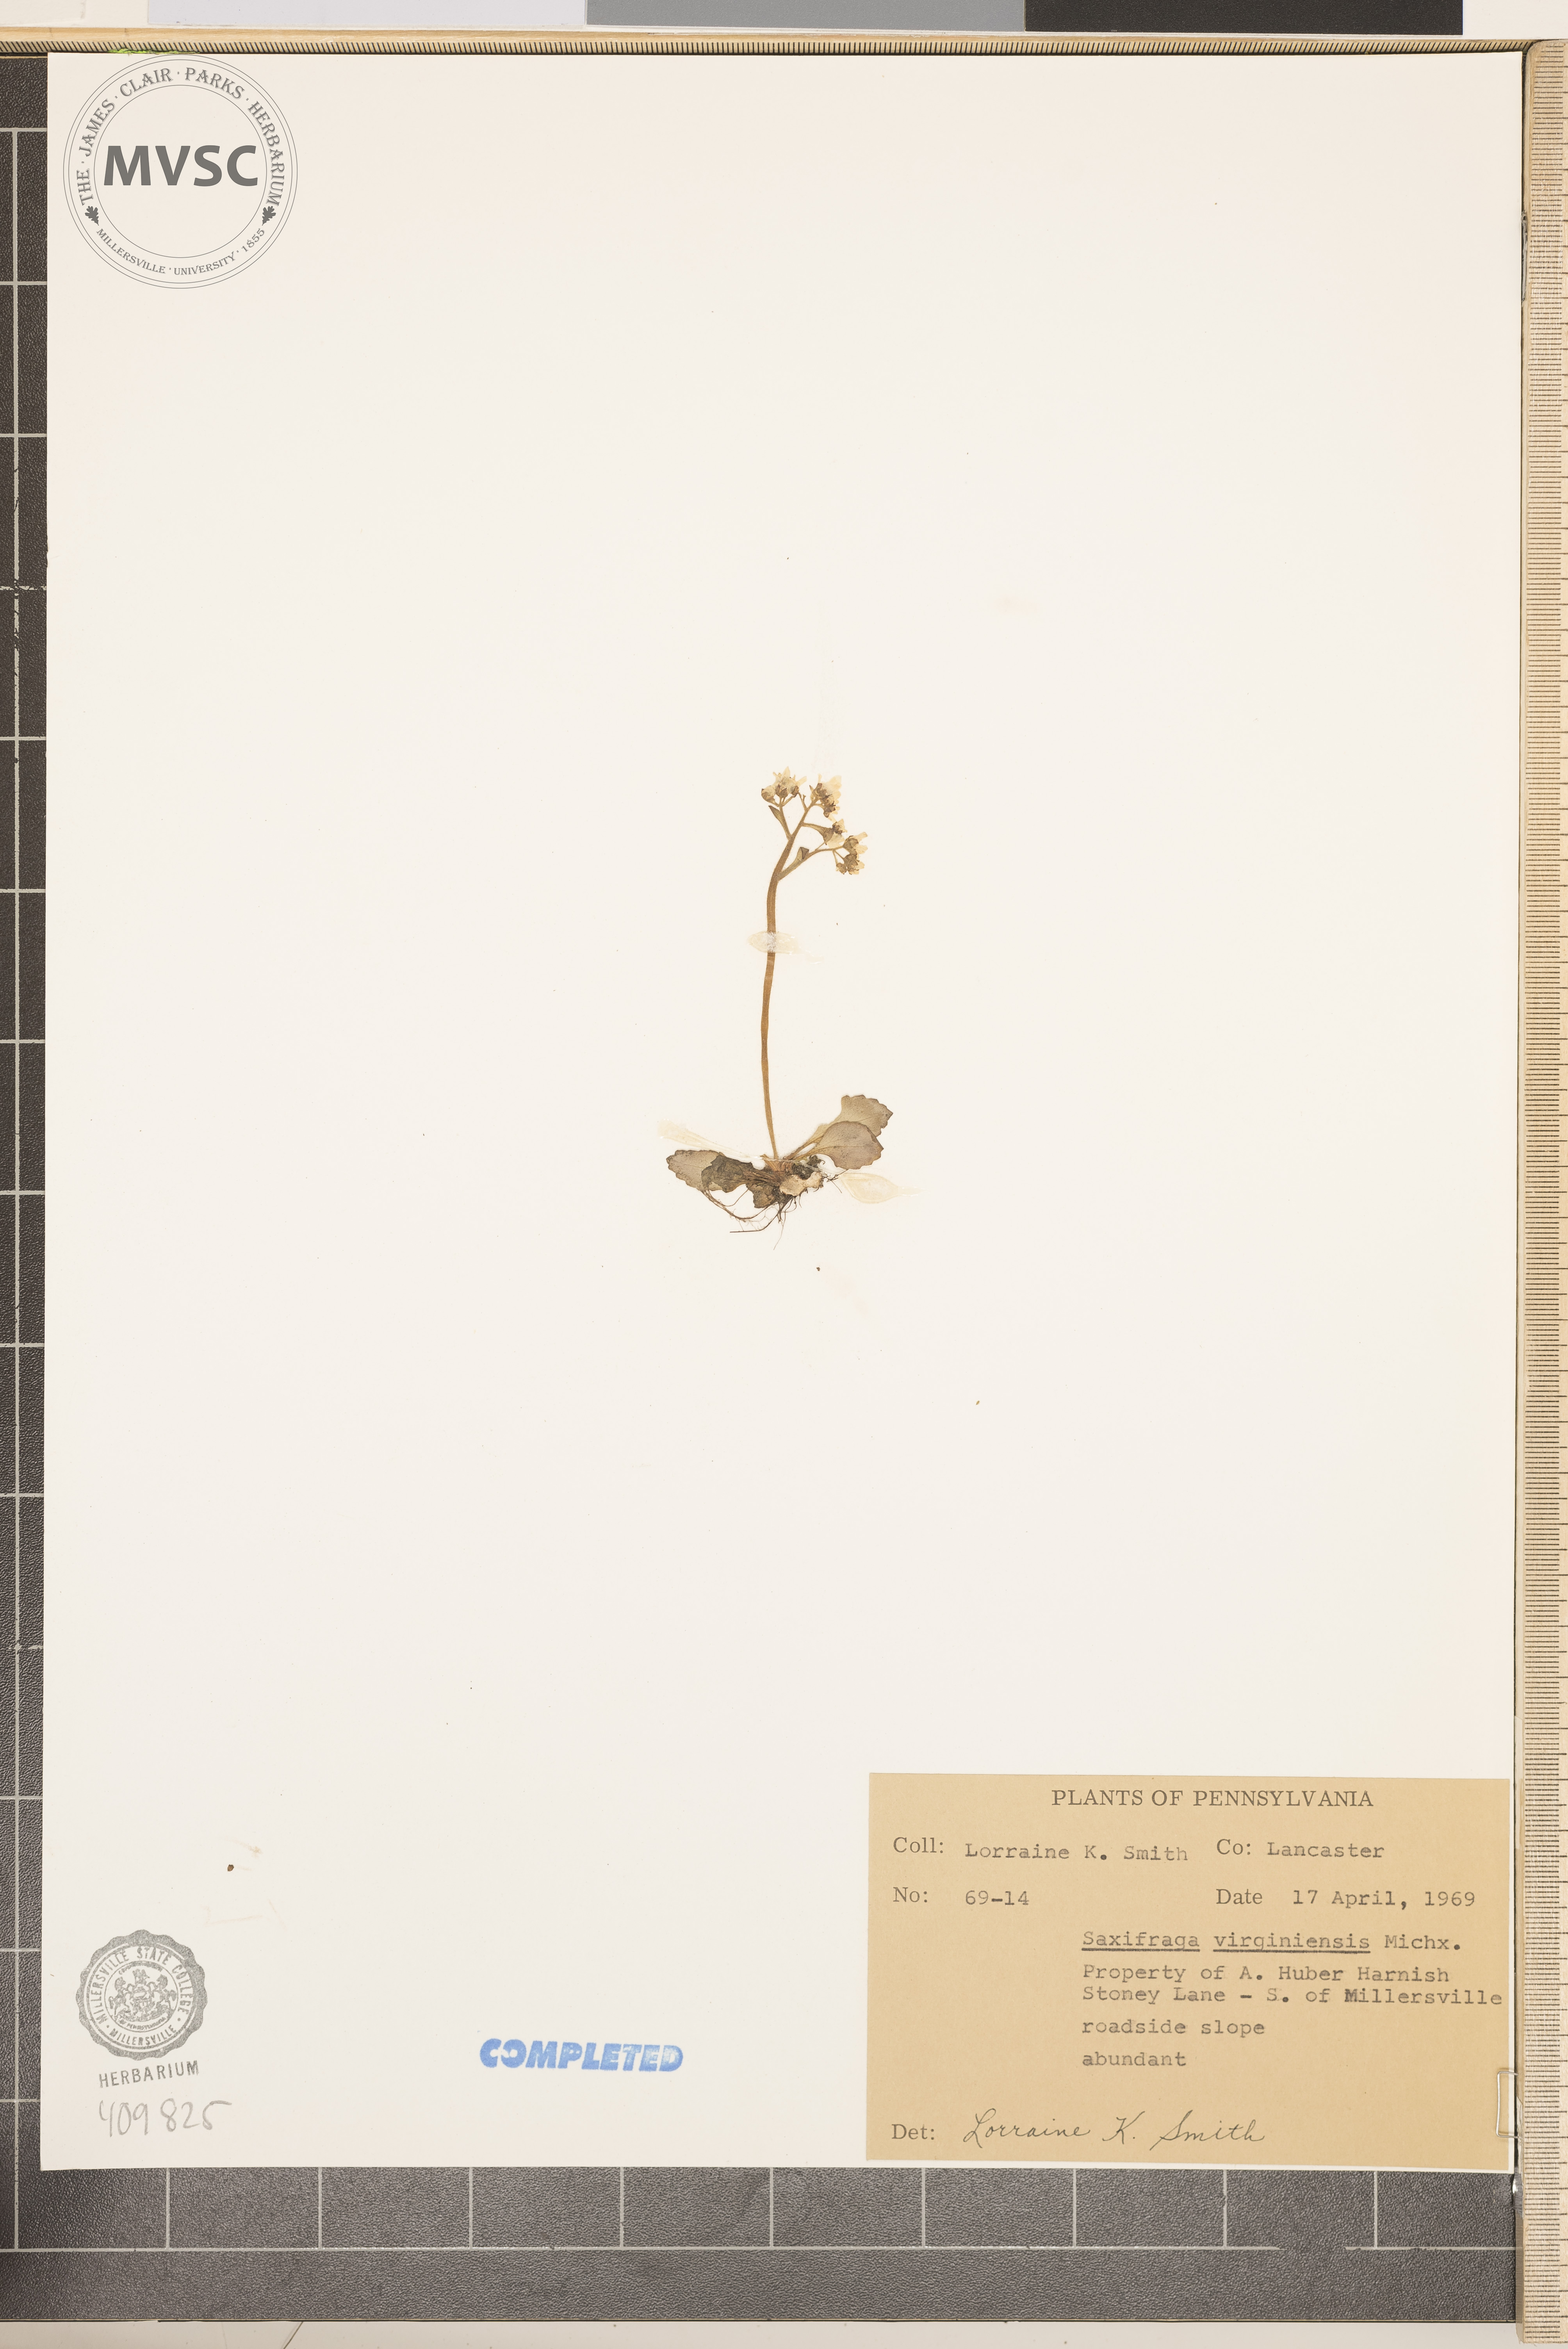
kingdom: Plantae
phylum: Tracheophyta
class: Magnoliopsida
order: Saxifragales
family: Saxifragaceae
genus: Micranthes
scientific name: Micranthes virginiensis
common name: Early saxifrage
